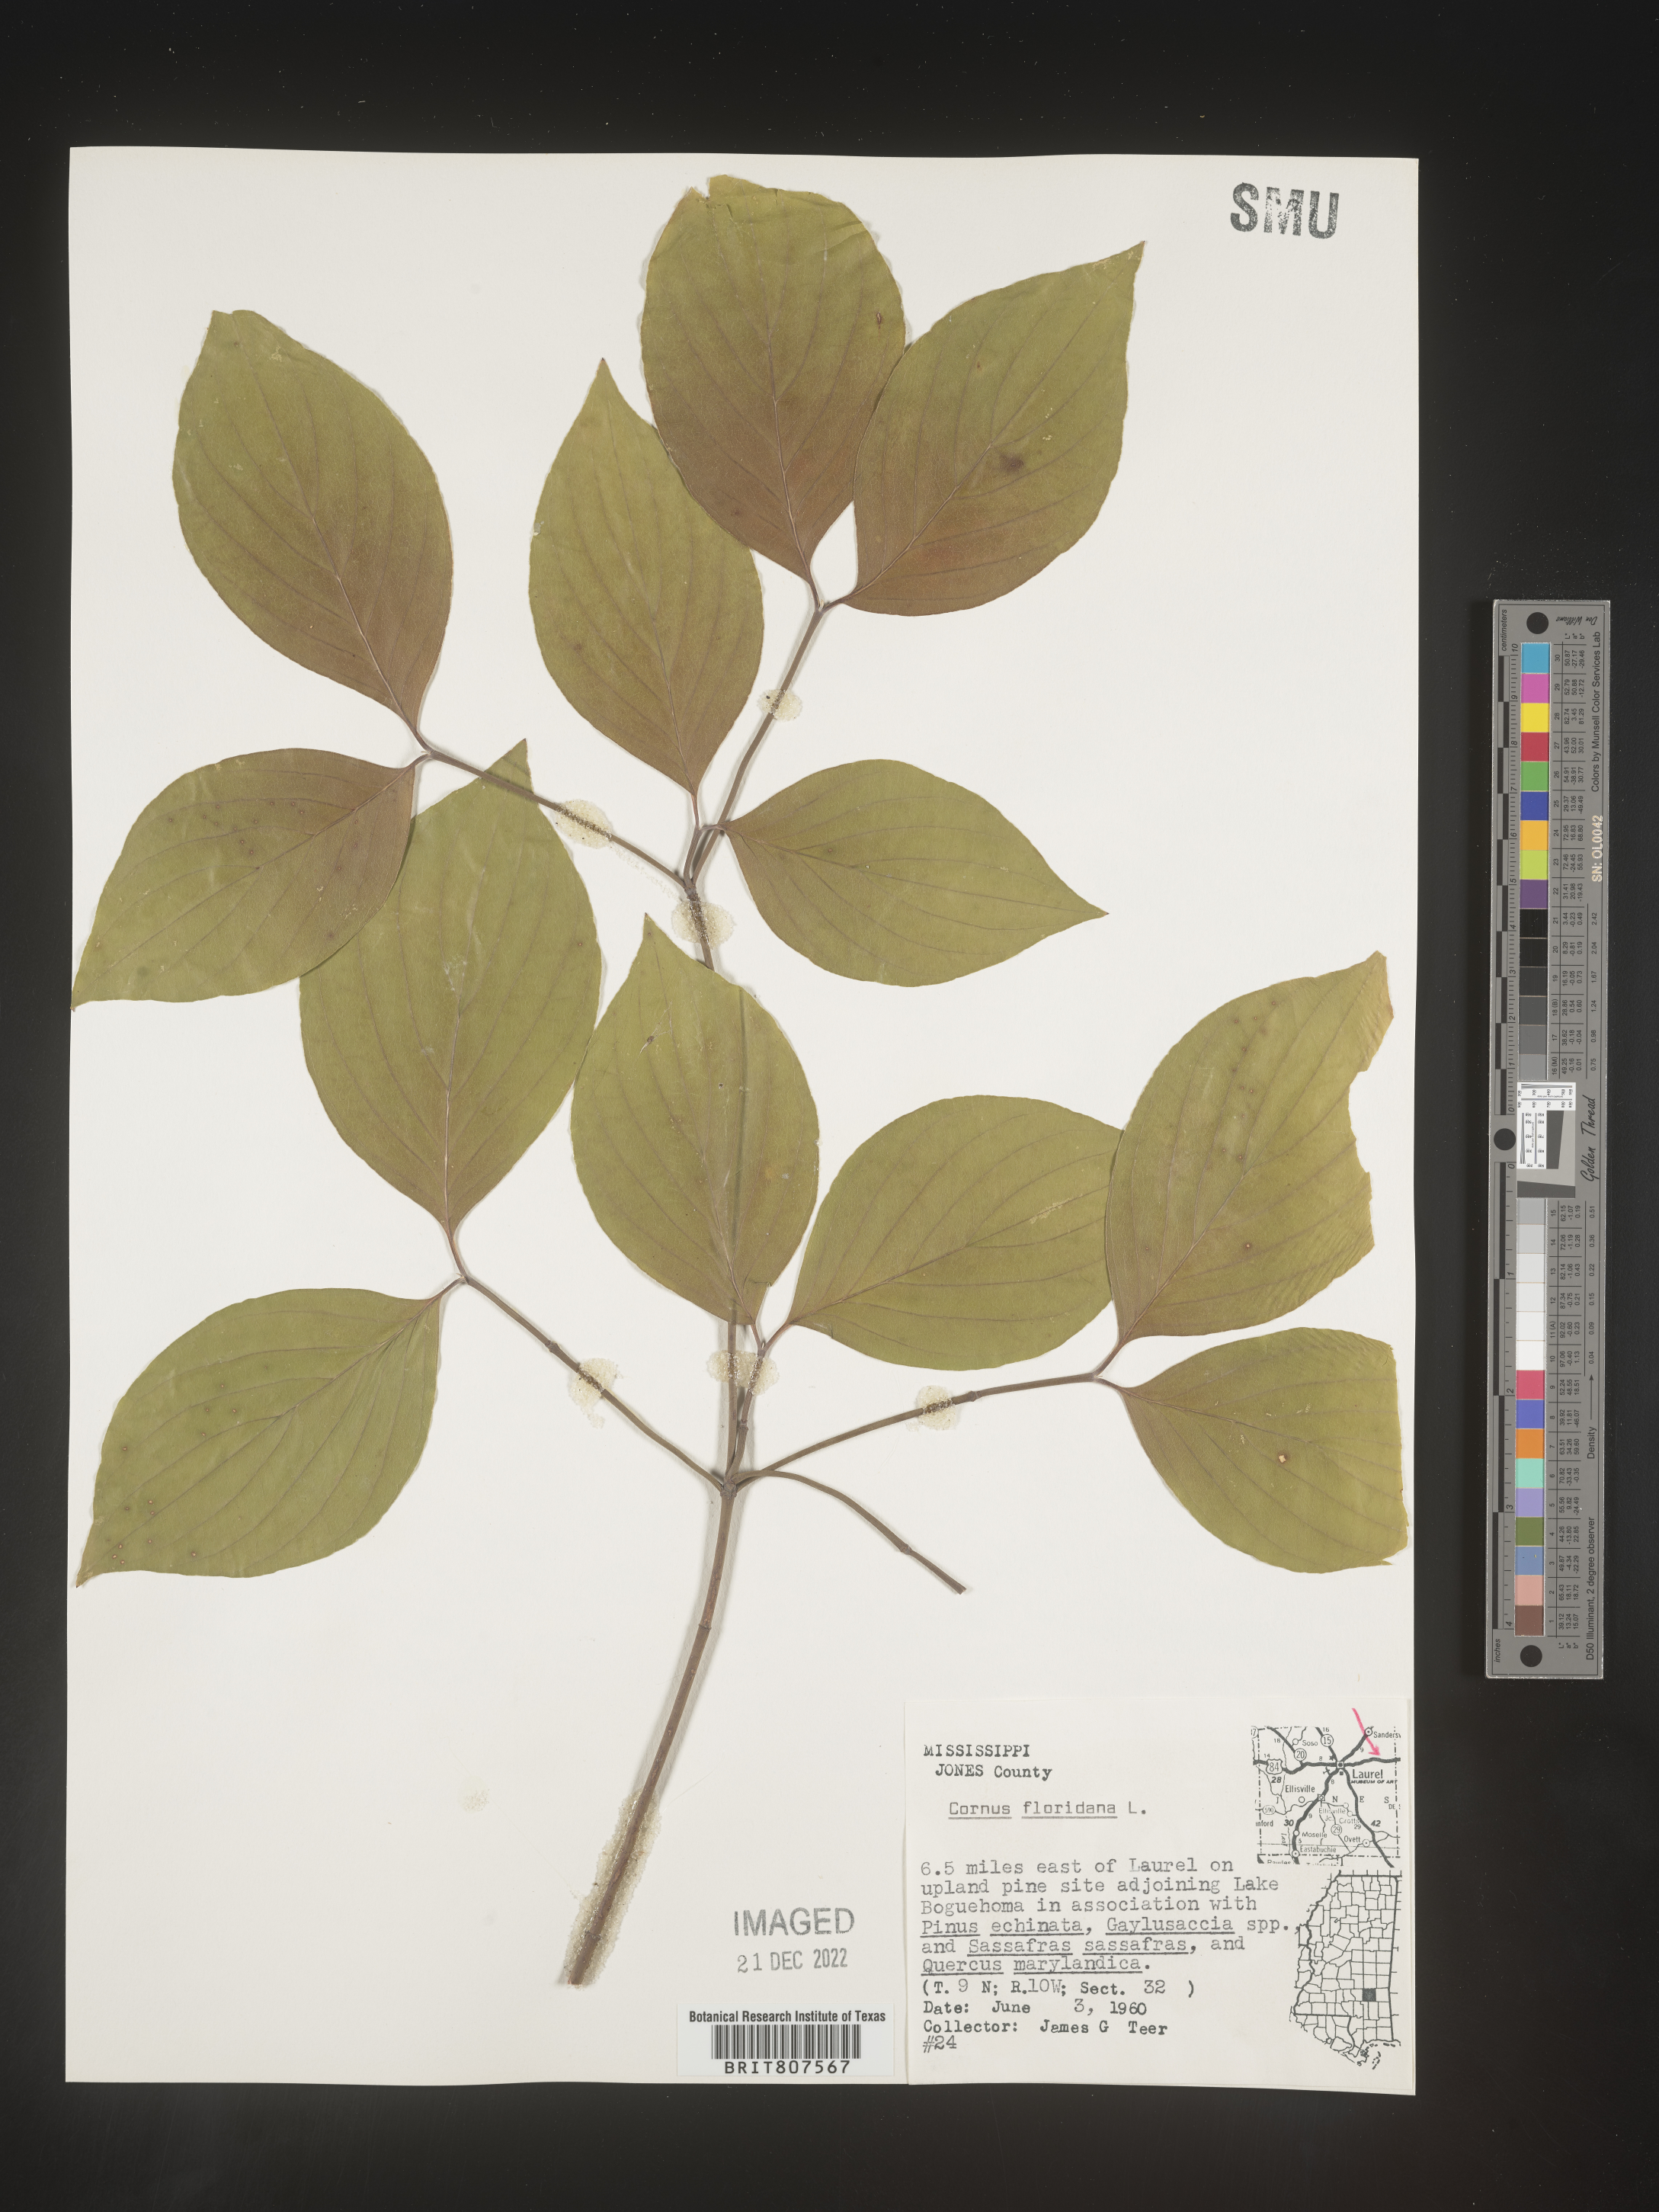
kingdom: Plantae
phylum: Tracheophyta
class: Magnoliopsida
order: Cornales
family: Cornaceae
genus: Cornus
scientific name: Cornus florida
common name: Flowering dogwood
